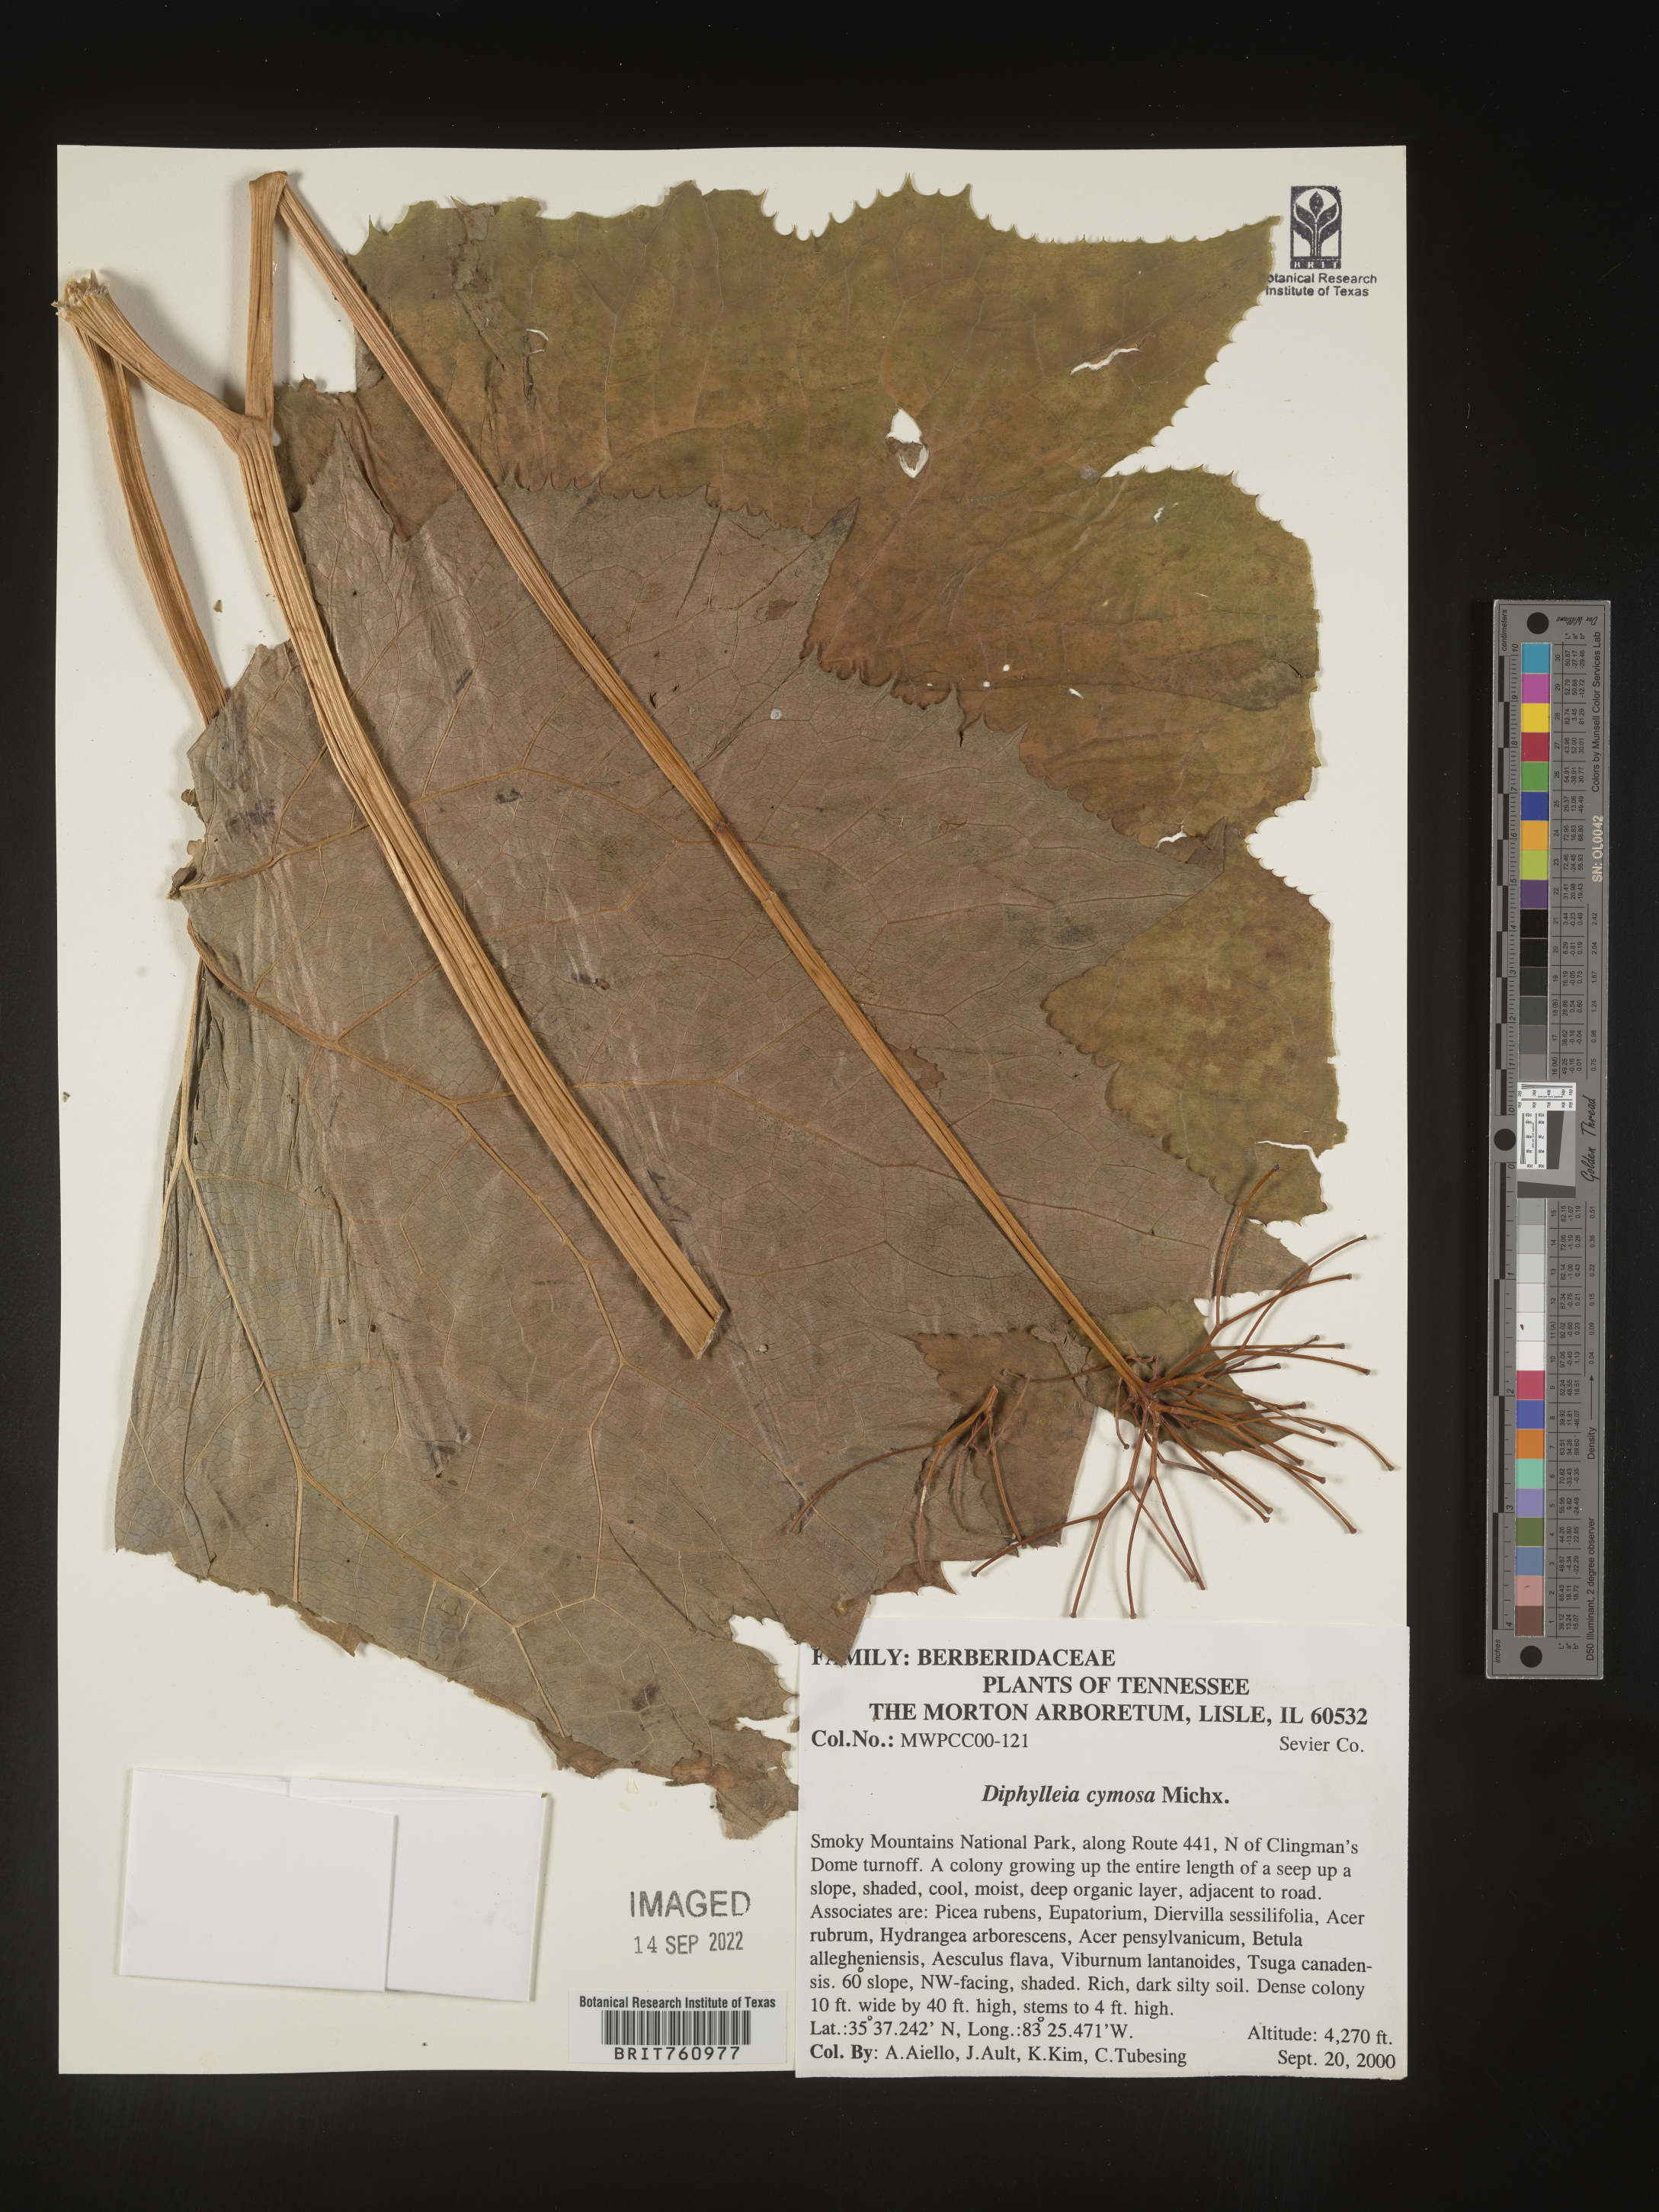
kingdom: Plantae
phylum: Tracheophyta
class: Magnoliopsida
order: Ranunculales
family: Berberidaceae
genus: Diphylleia
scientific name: Diphylleia
